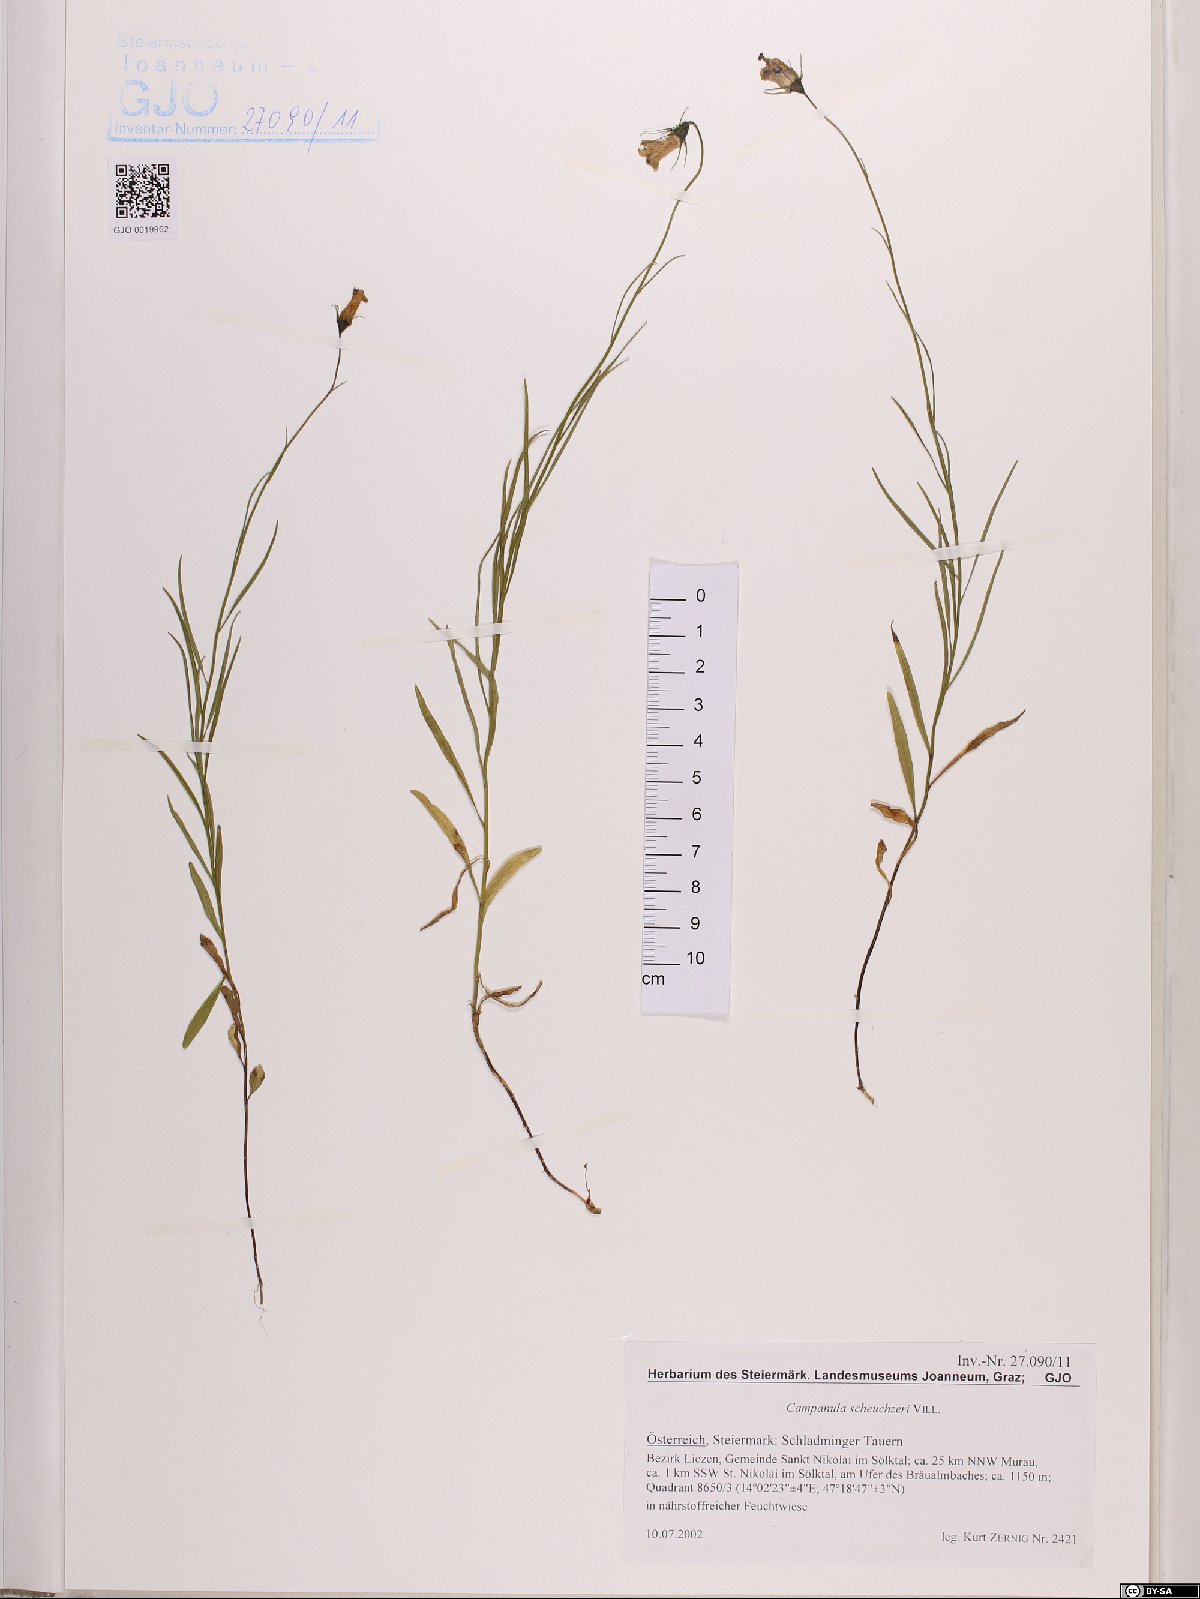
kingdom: Plantae
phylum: Tracheophyta
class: Magnoliopsida
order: Asterales
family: Campanulaceae
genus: Campanula
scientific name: Campanula scheuchzeri
